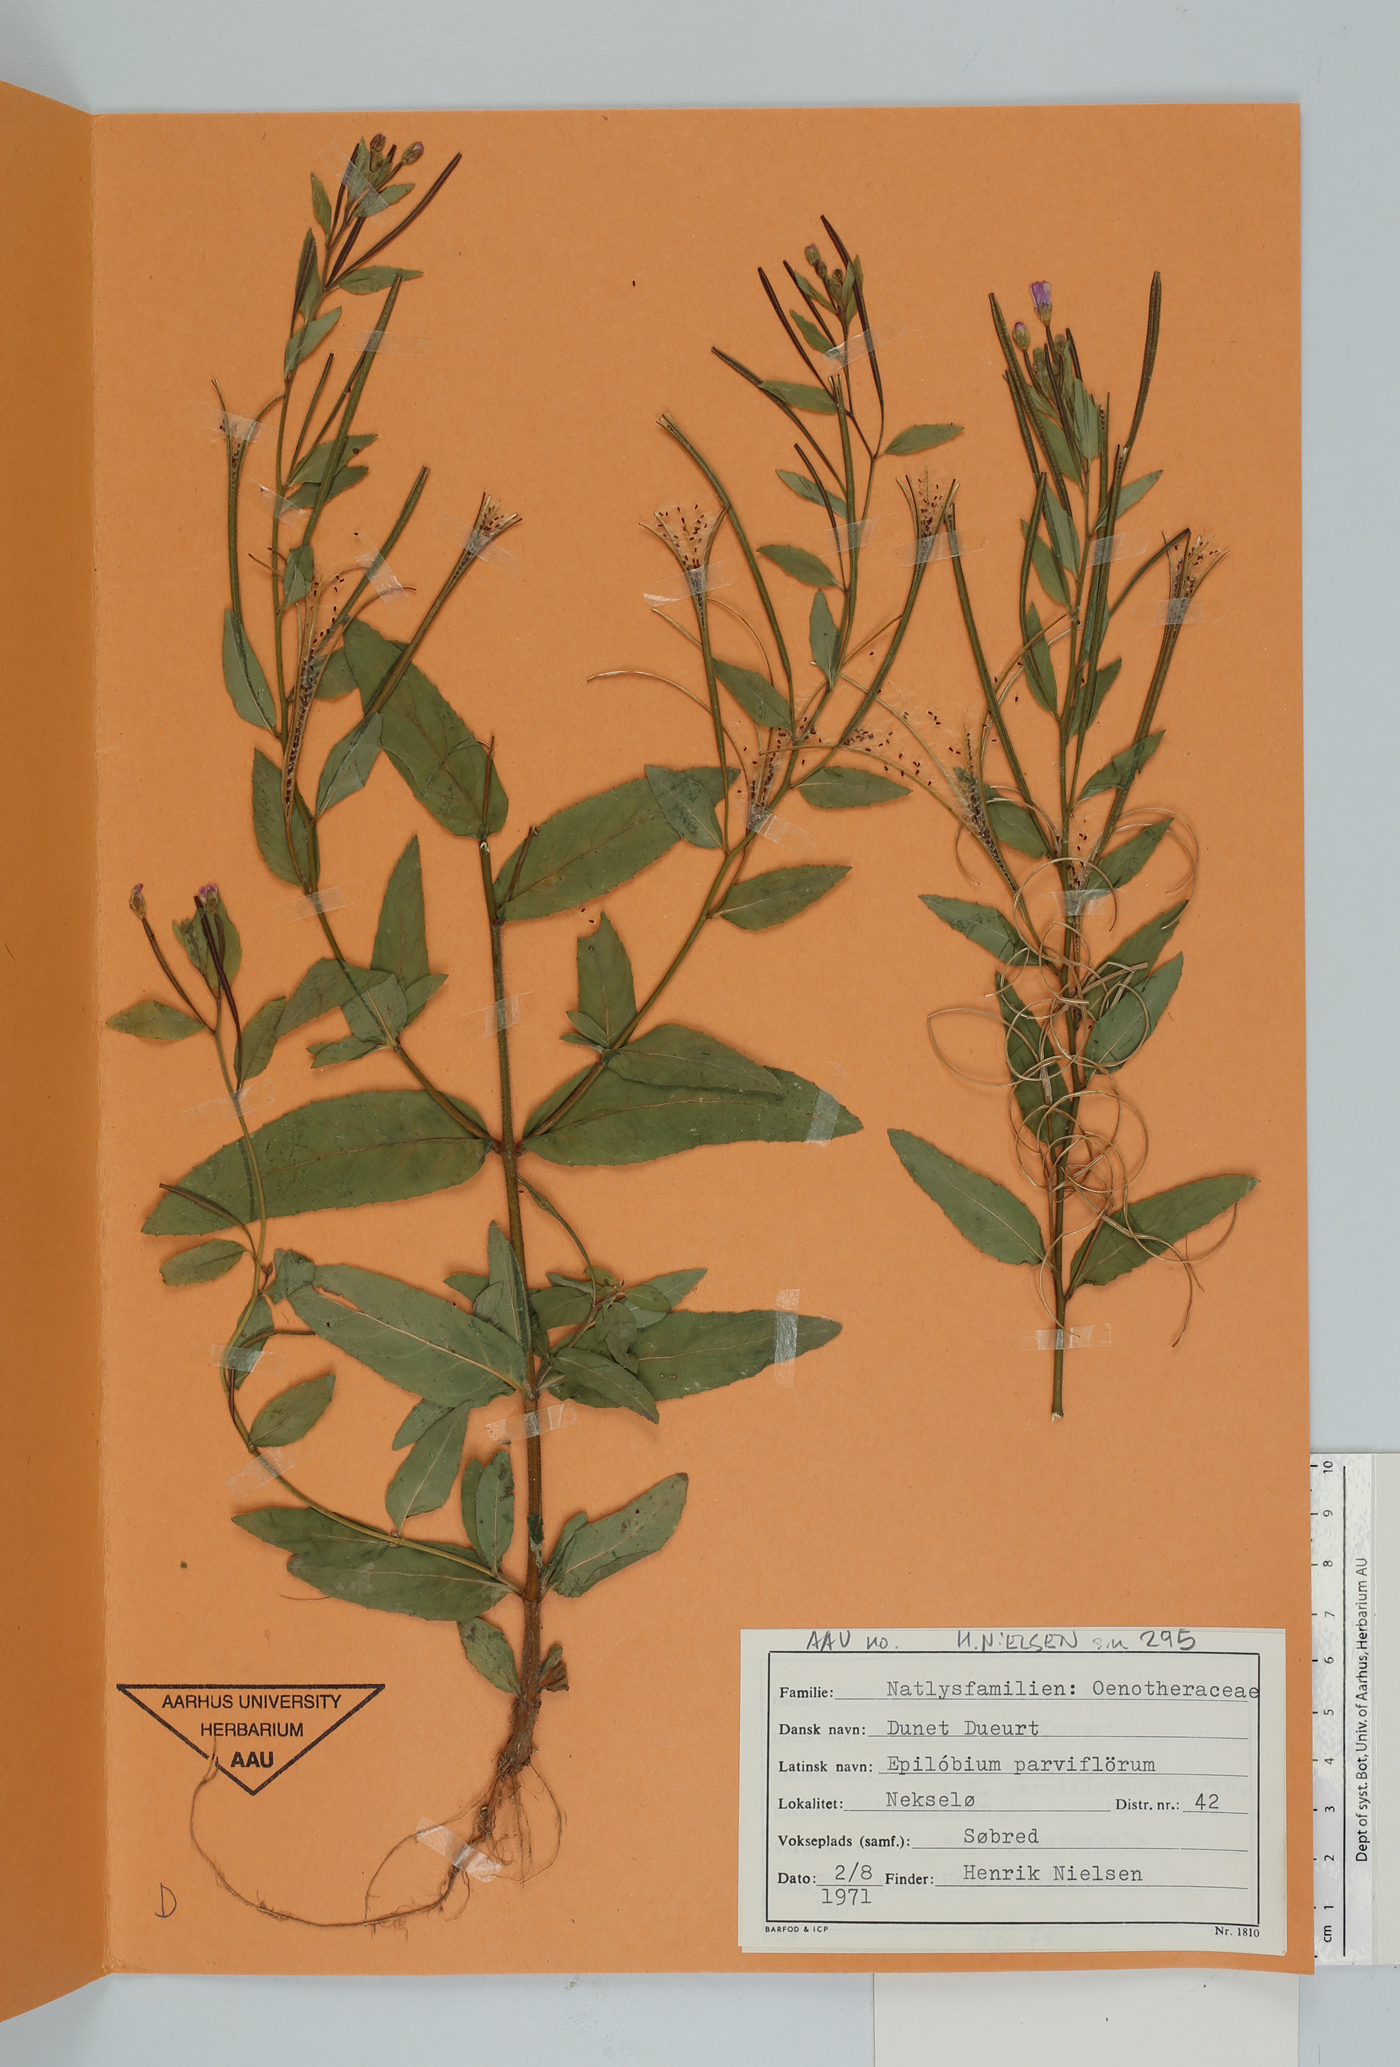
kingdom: Plantae
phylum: Tracheophyta
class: Magnoliopsida
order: Myrtales
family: Onagraceae
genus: Epilobium
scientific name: Epilobium parviflorum
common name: Hoary willowherb
